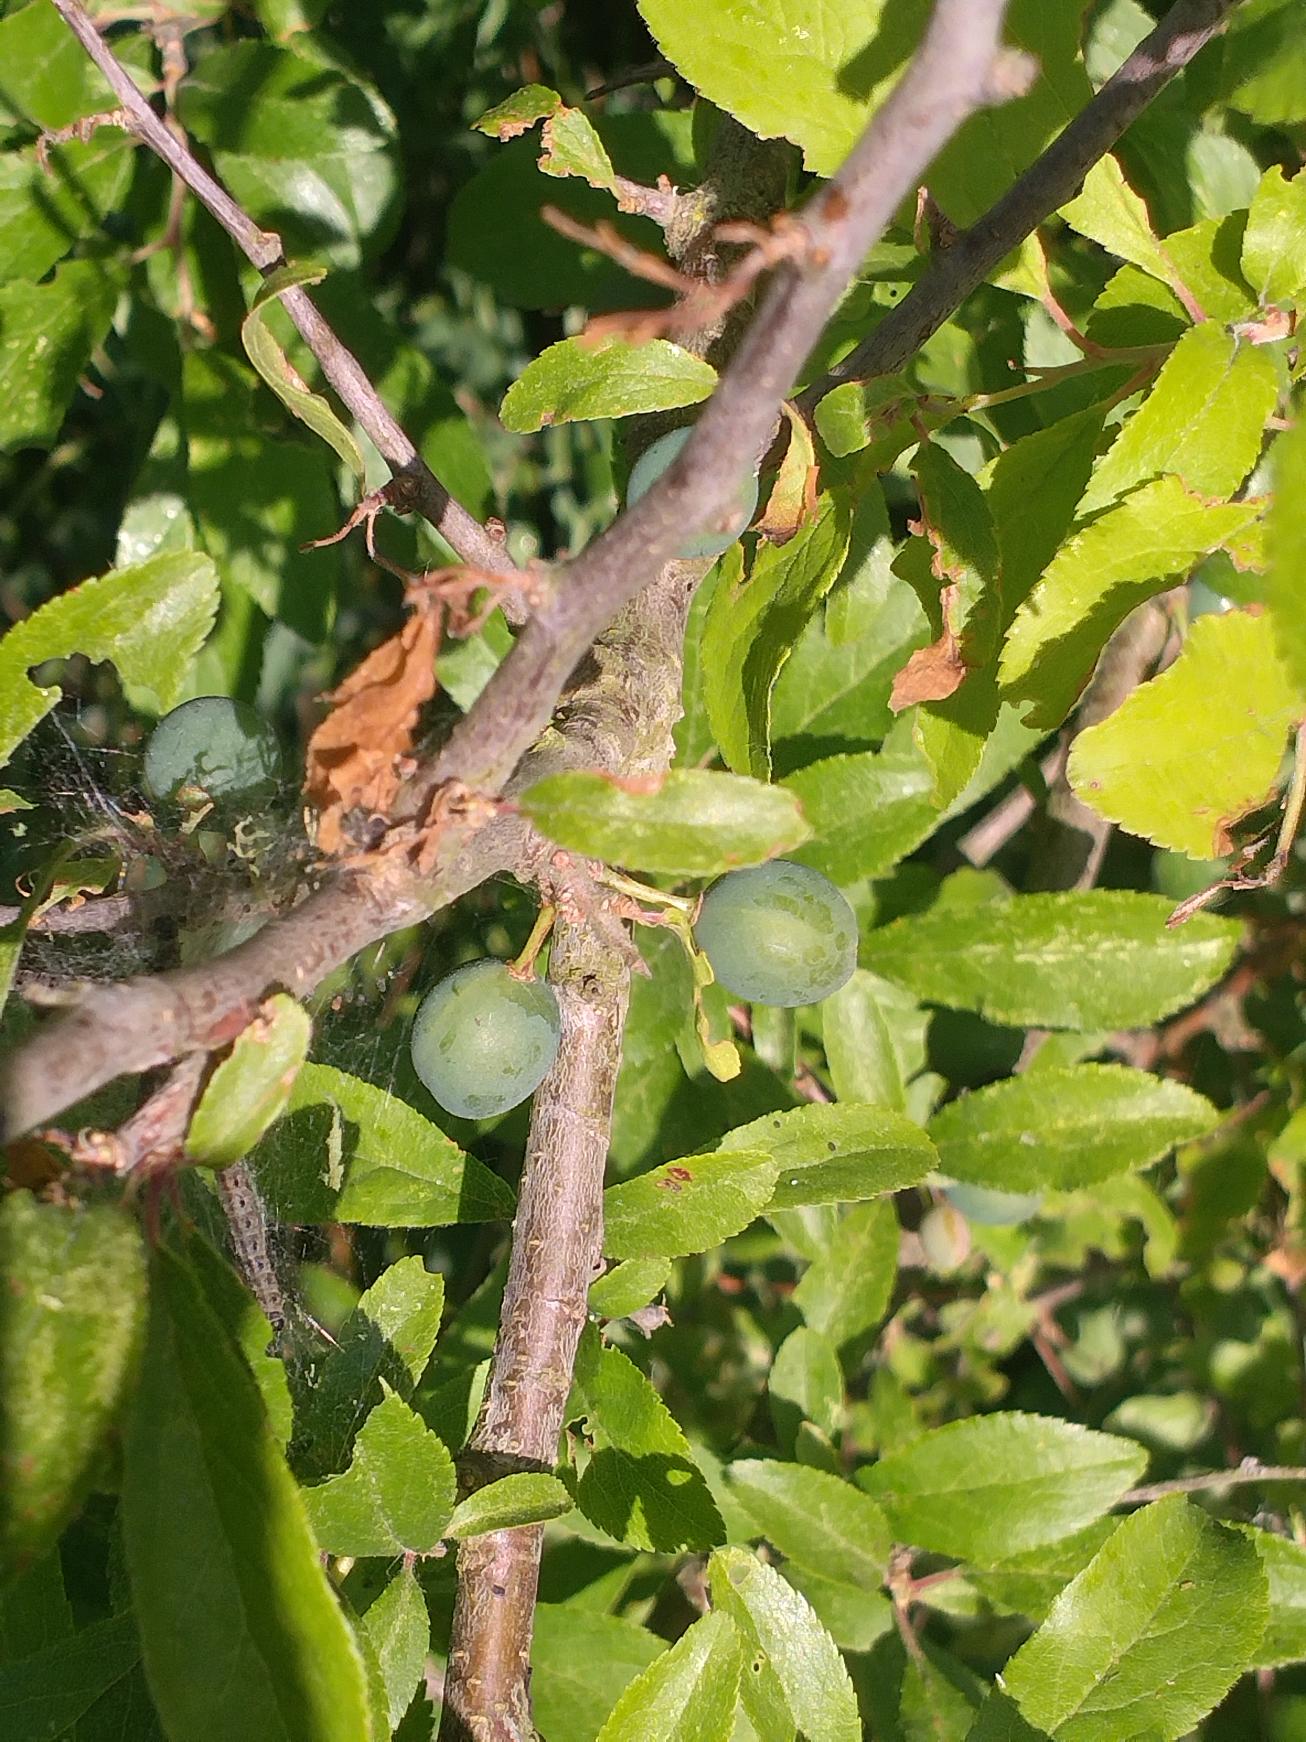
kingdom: Plantae
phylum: Tracheophyta
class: Magnoliopsida
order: Rosales
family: Rosaceae
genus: Prunus
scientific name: Prunus spinosa
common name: Slåen
